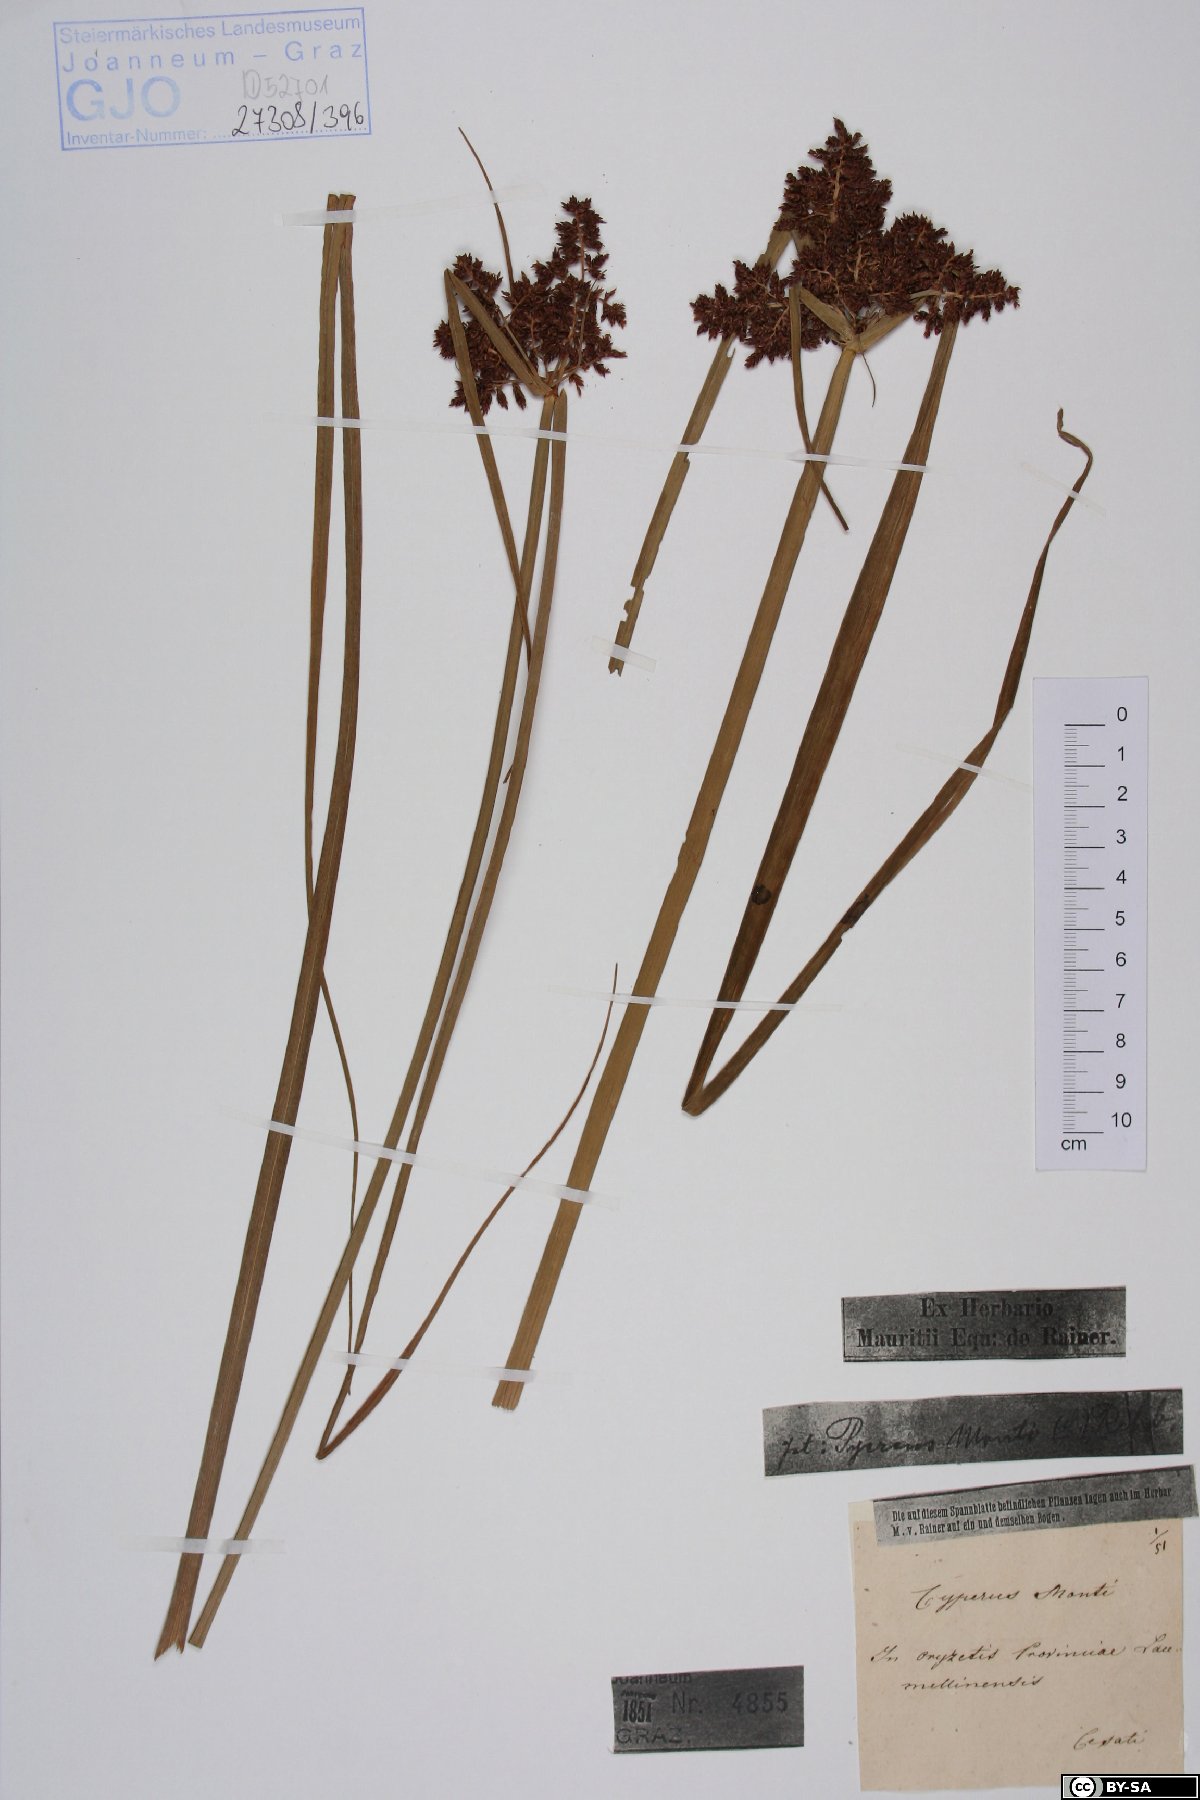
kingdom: Plantae
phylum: Tracheophyta
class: Liliopsida
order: Poales
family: Cyperaceae
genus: Cyperus
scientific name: Cyperus serotinus
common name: Tidalmarsh flatsedge
